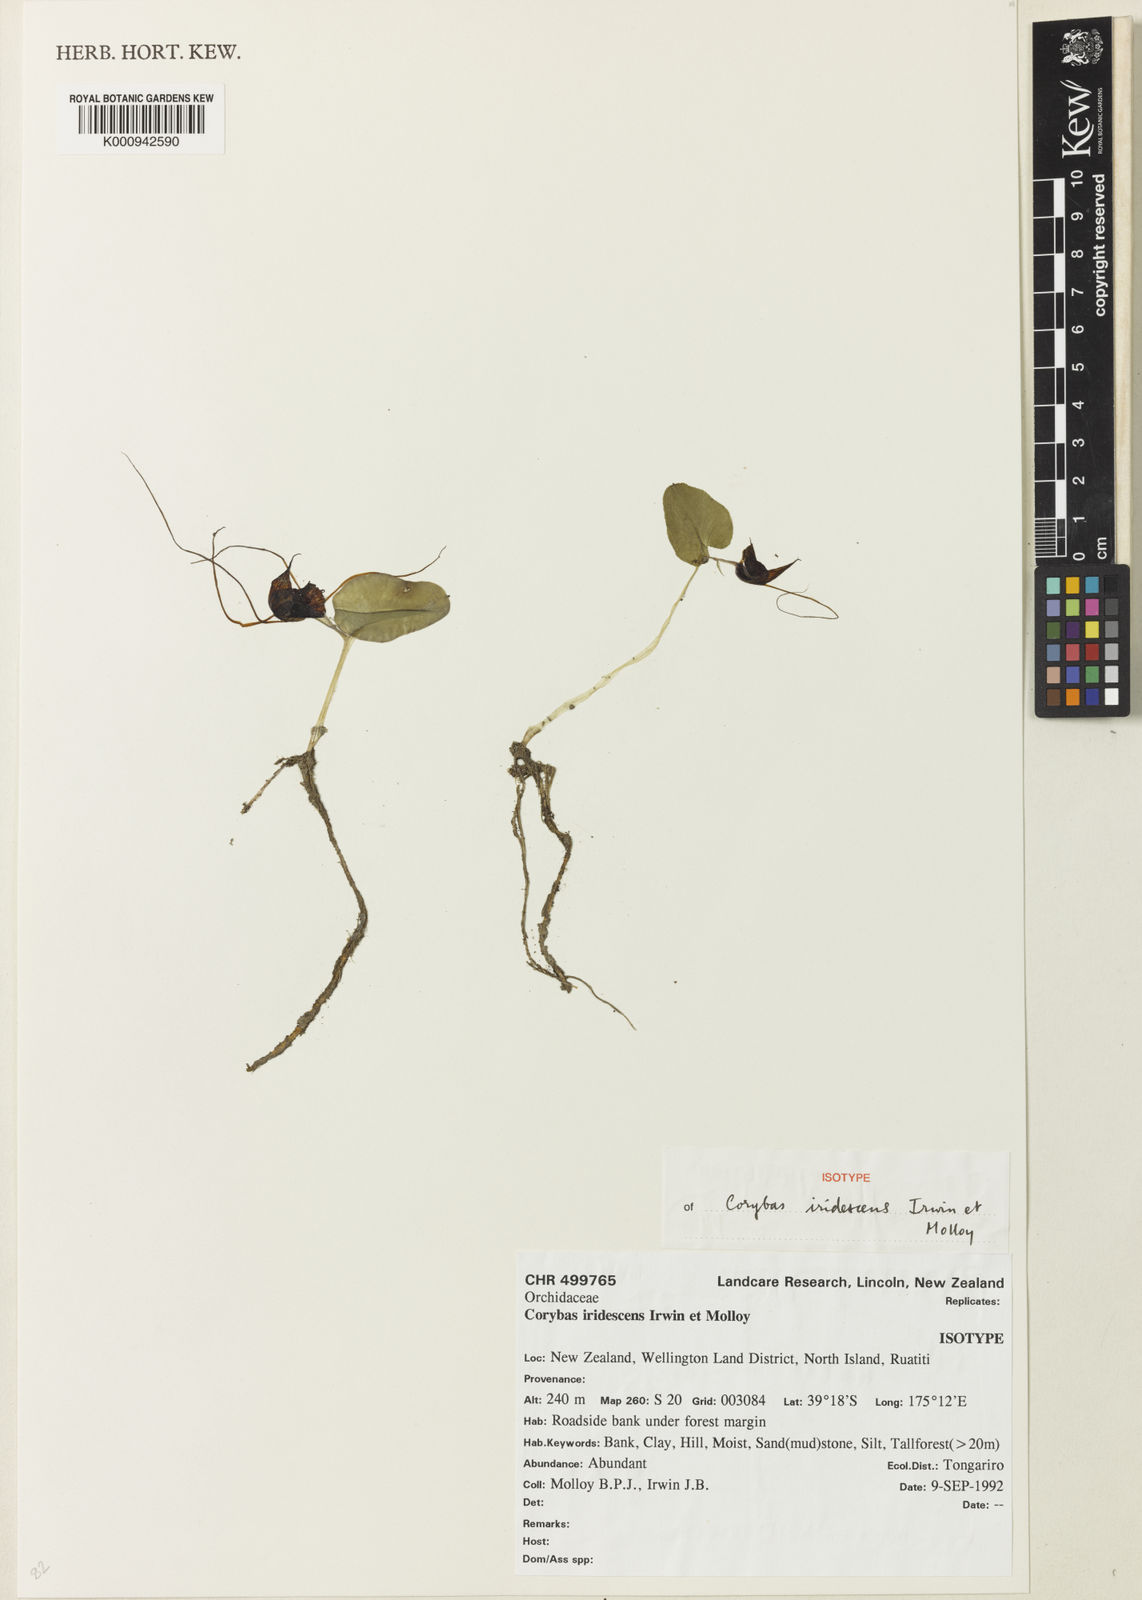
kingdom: Plantae
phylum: Tracheophyta
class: Liliopsida
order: Asparagales
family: Orchidaceae
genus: Corybas
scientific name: Corybas iridescens
